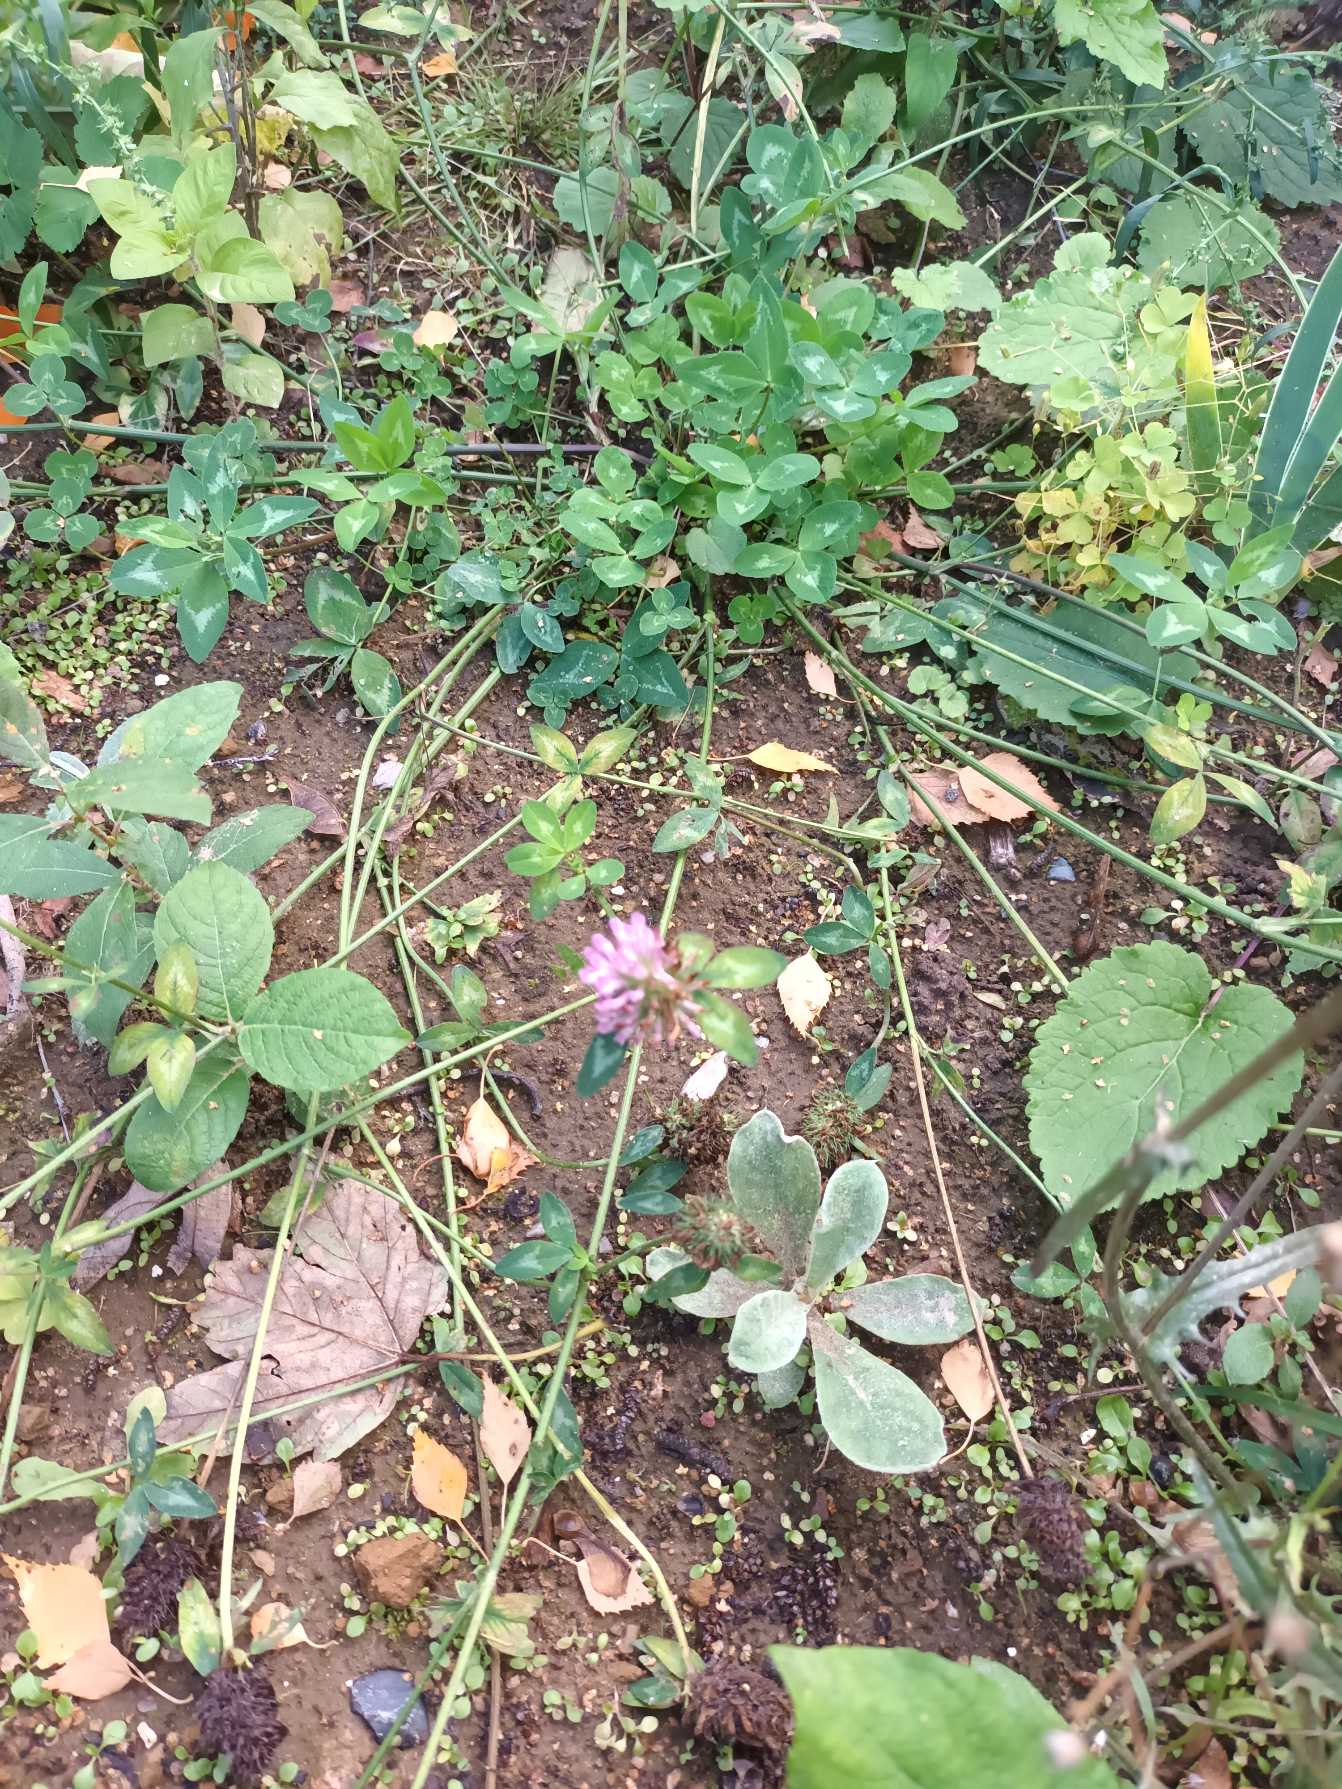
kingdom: Plantae
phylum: Tracheophyta
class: Magnoliopsida
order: Fabales
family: Fabaceae
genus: Trifolium
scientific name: Trifolium pratense
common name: Rød-kløver
